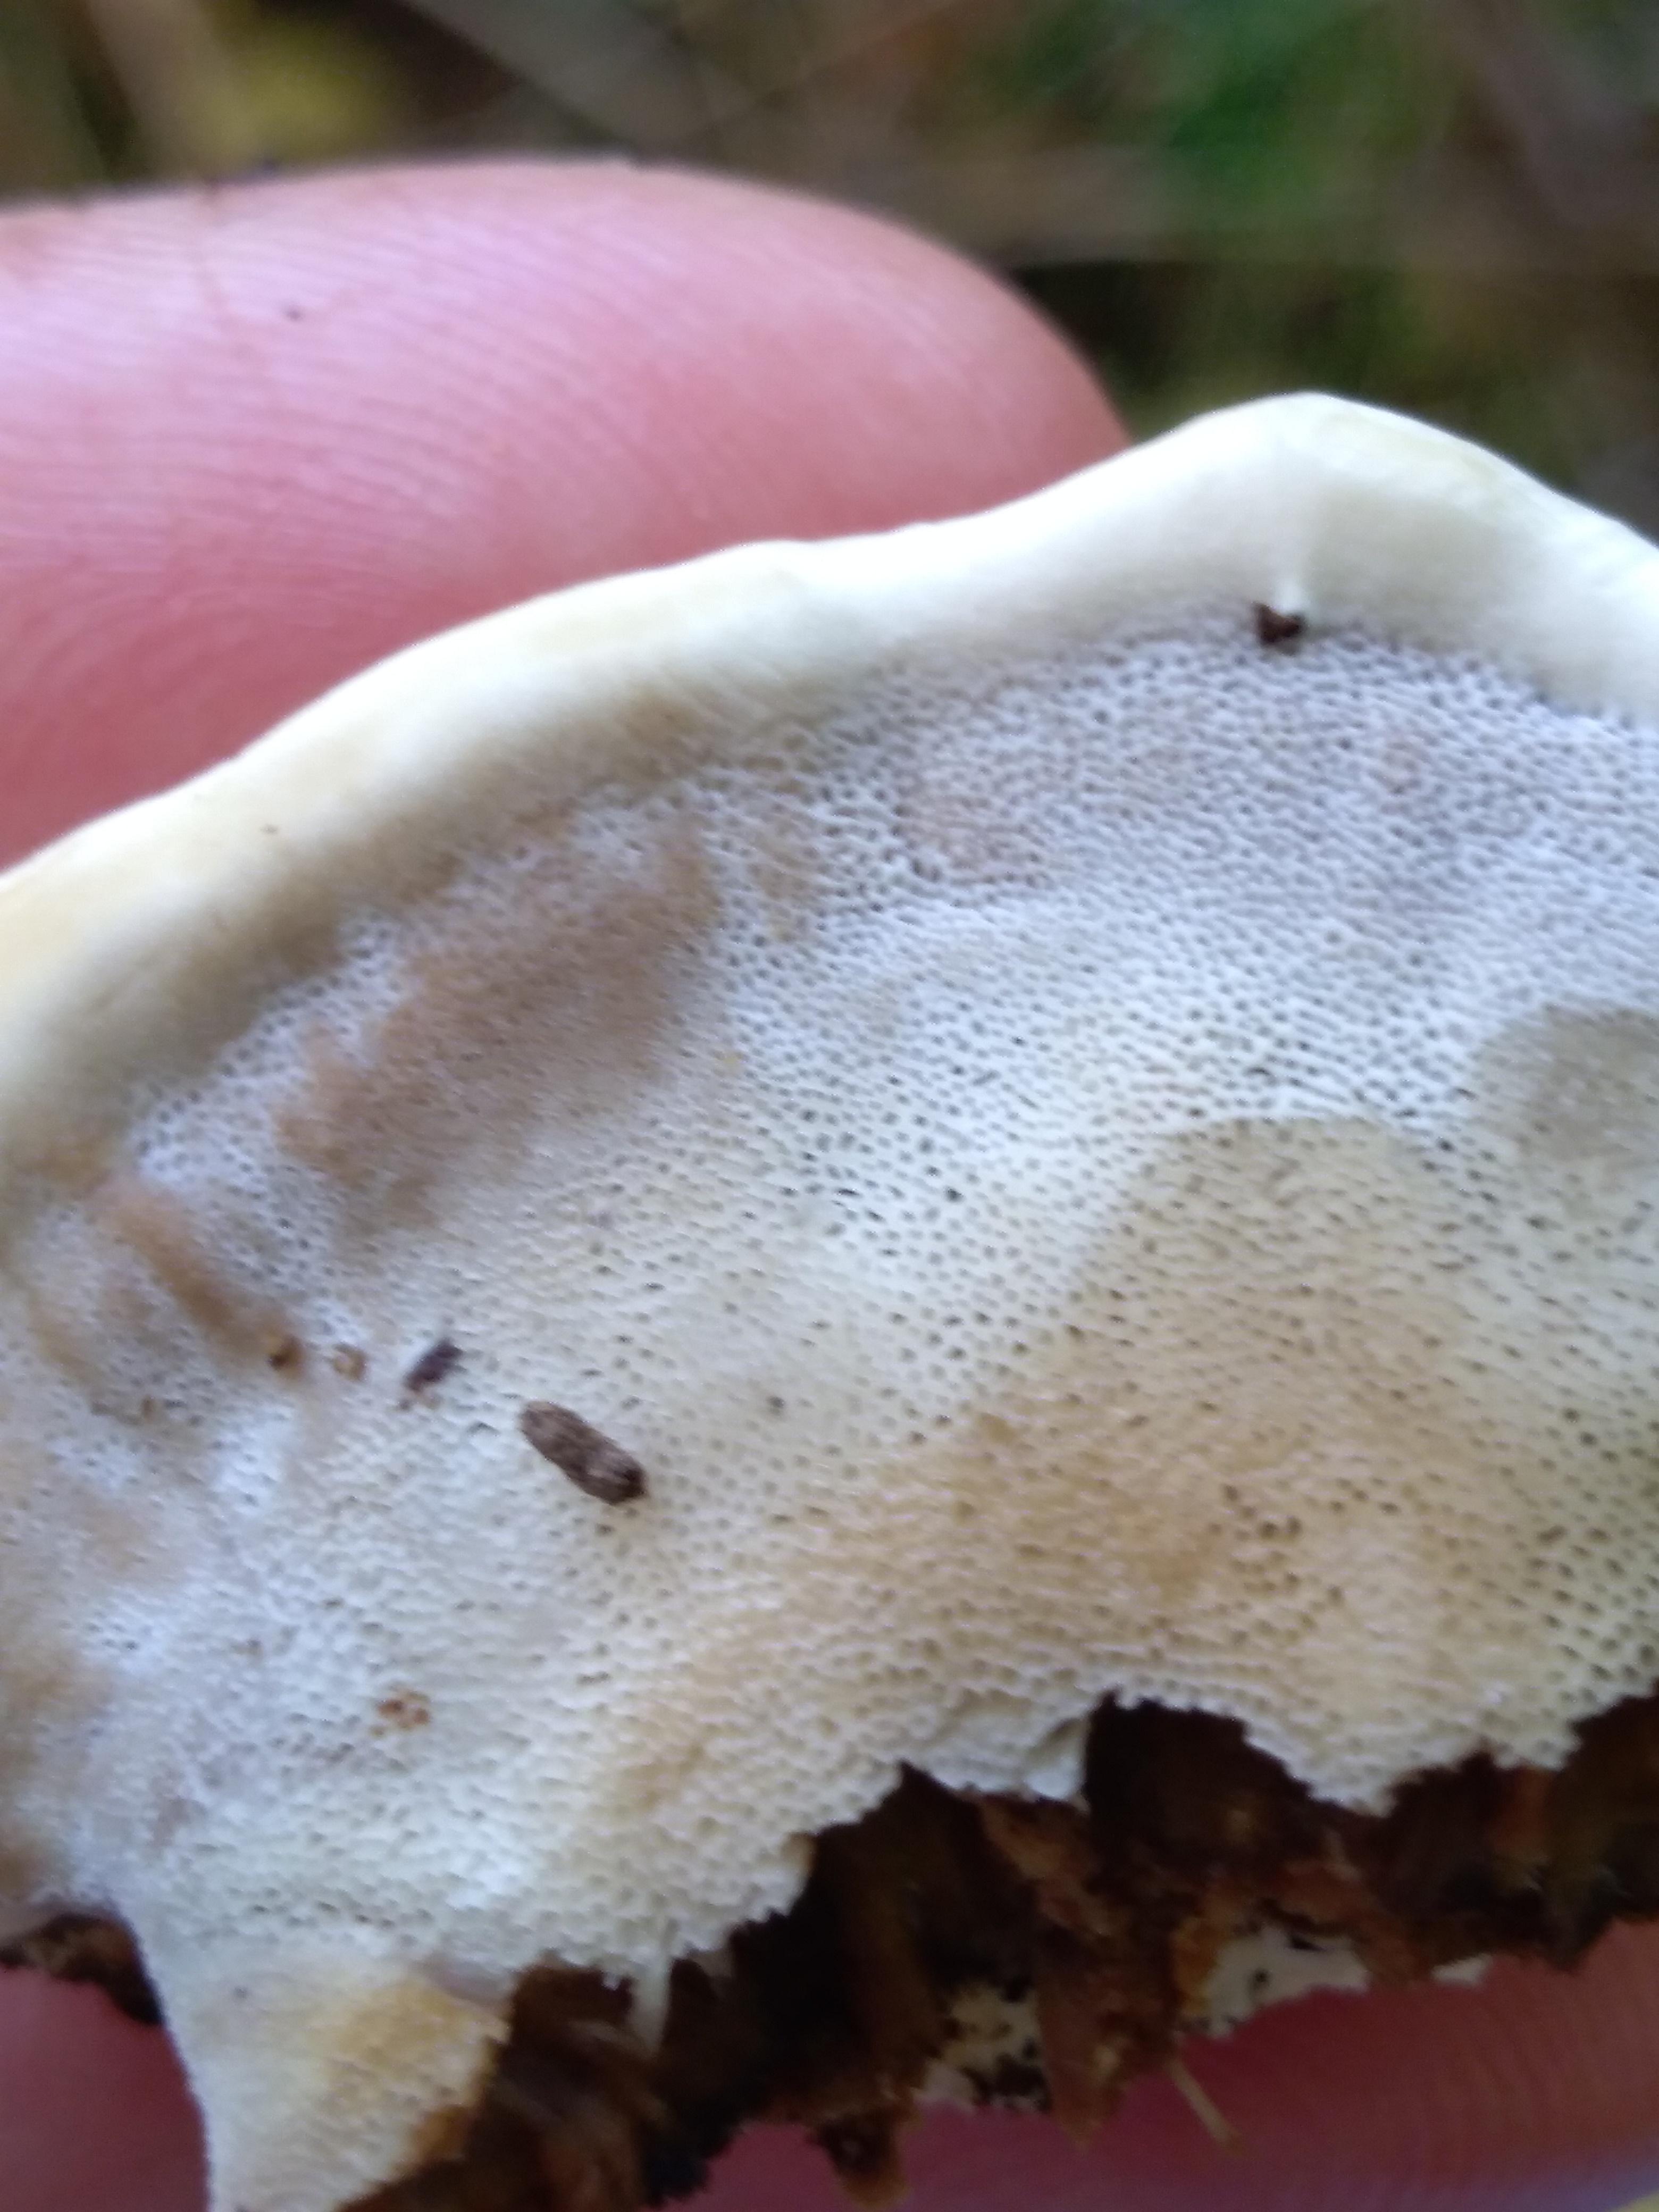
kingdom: Fungi
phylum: Basidiomycota
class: Agaricomycetes
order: Polyporales
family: Phanerochaetaceae
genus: Bjerkandera
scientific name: Bjerkandera fumosa
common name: grågul sodporesvamp
